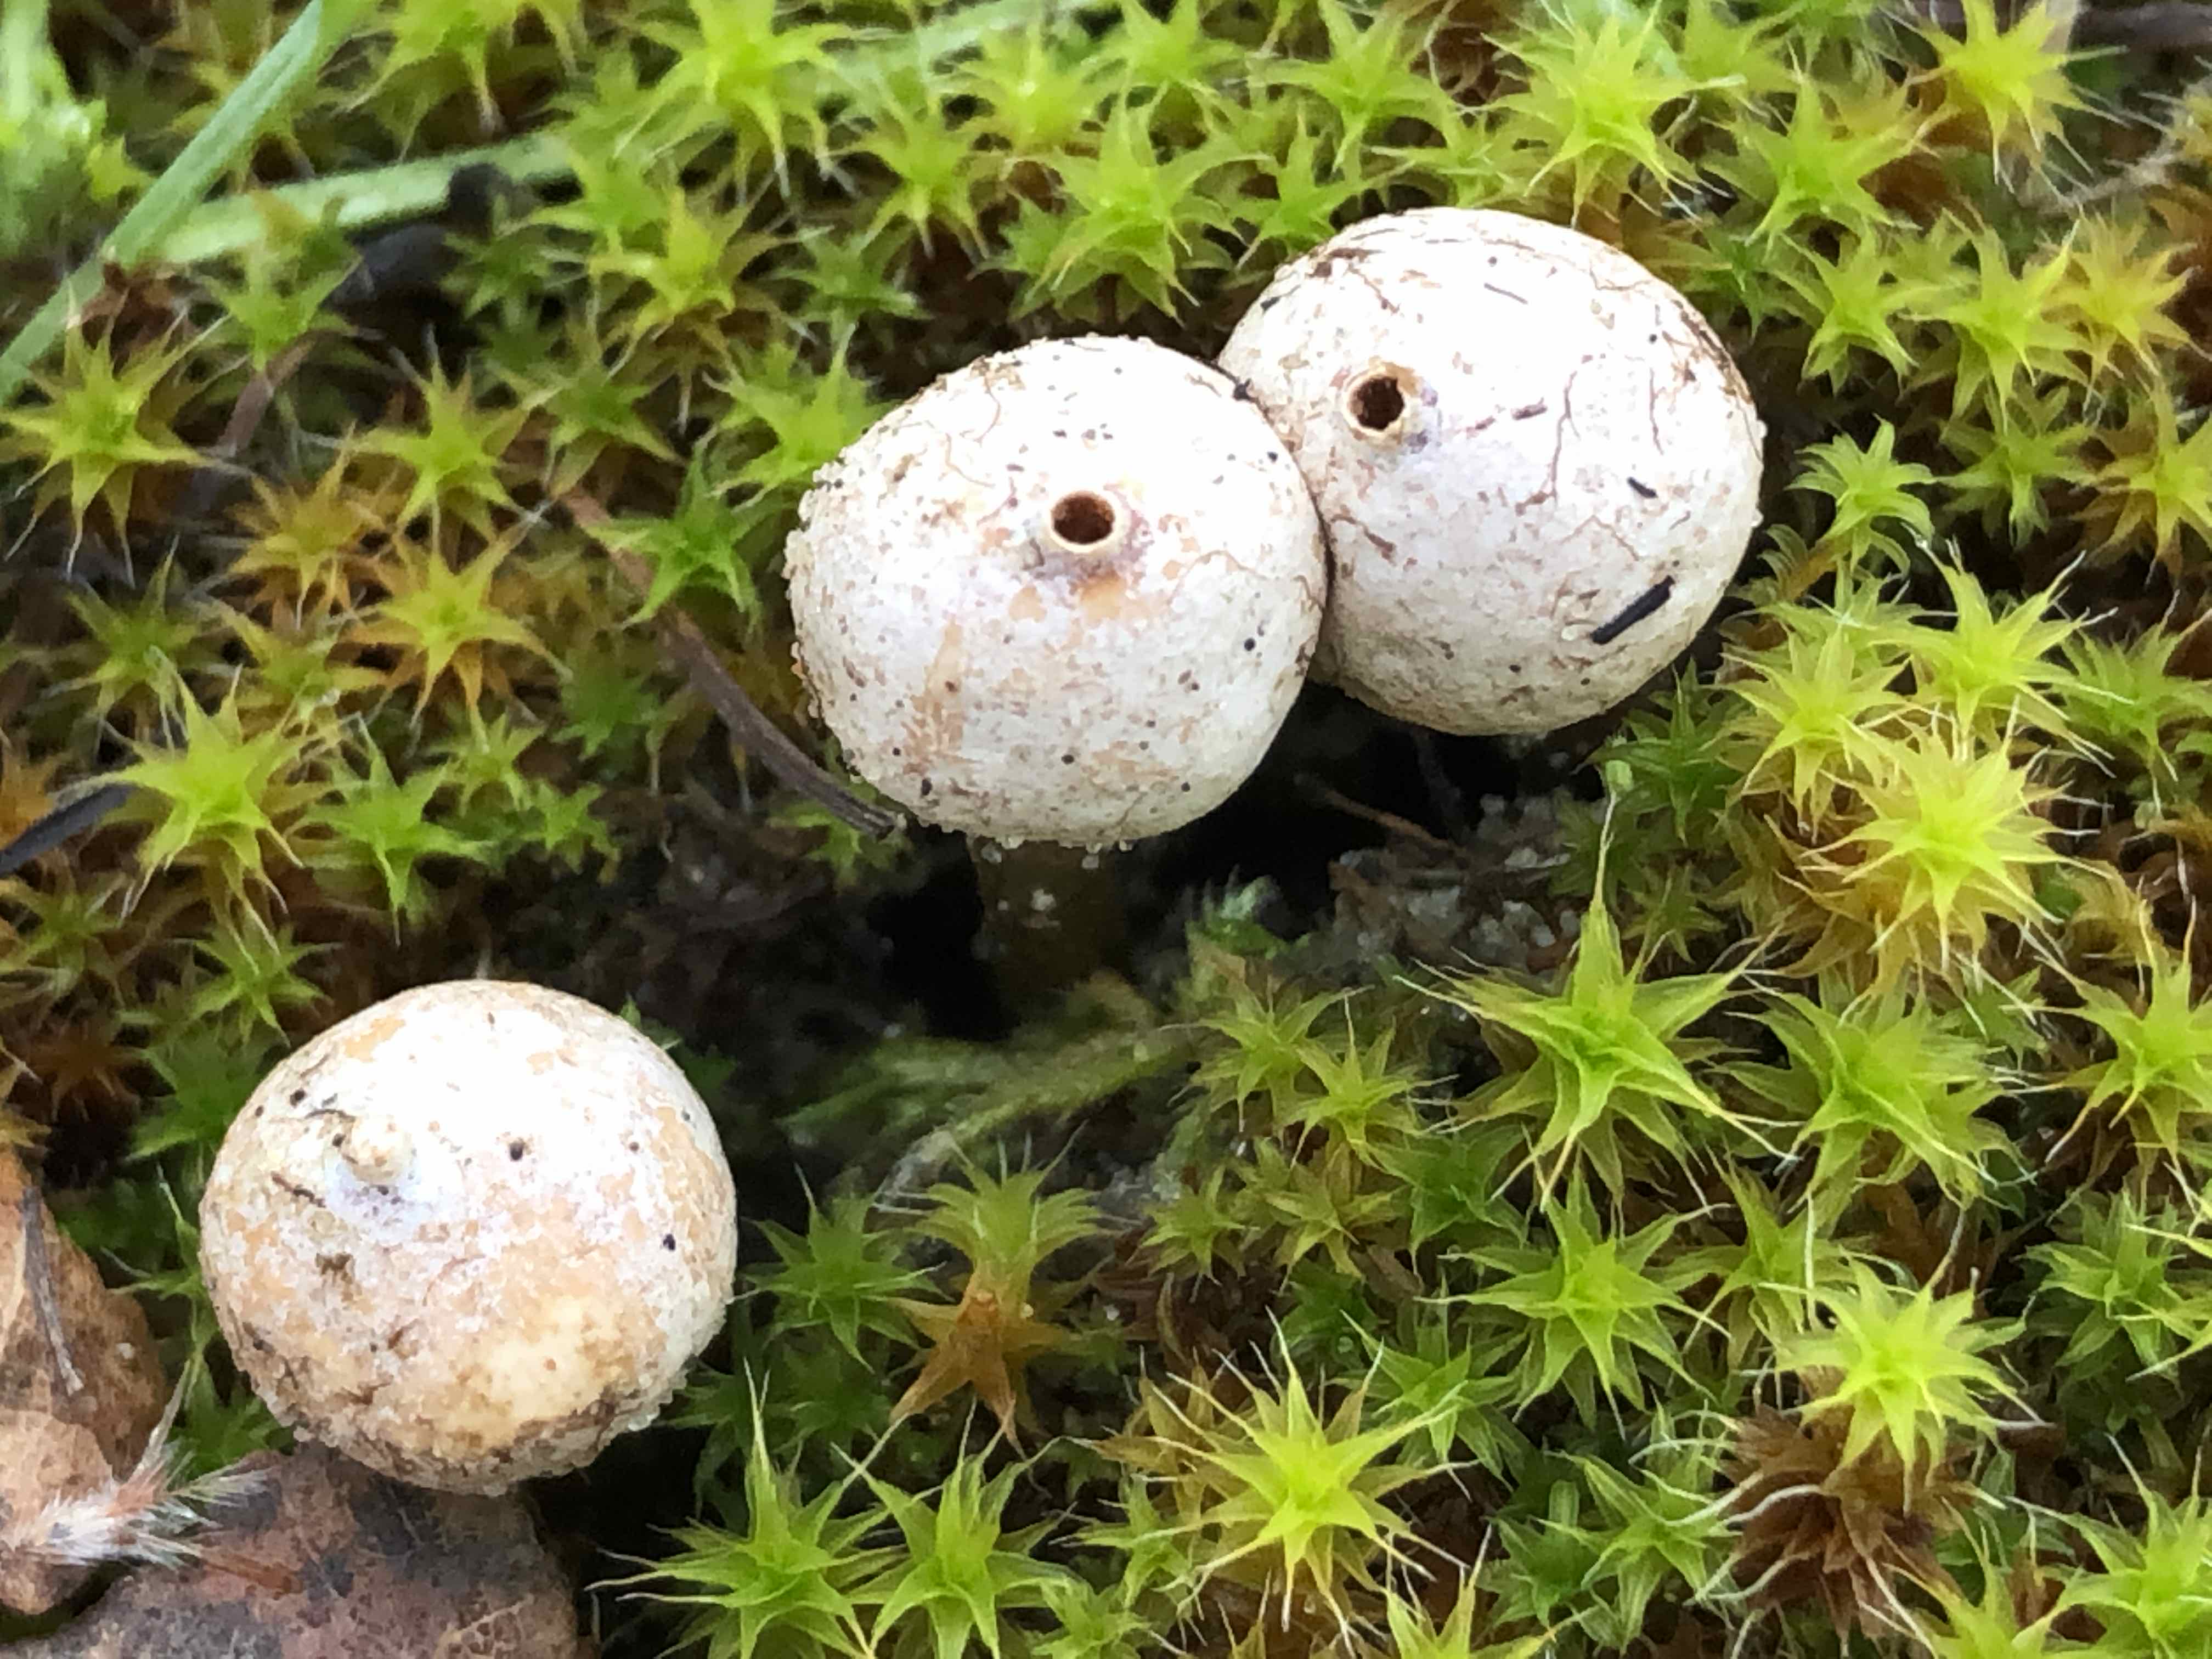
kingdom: Fungi
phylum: Basidiomycota
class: Agaricomycetes
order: Agaricales
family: Agaricaceae
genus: Tulostoma
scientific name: Tulostoma brumale
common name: vinter-stilkbovist
